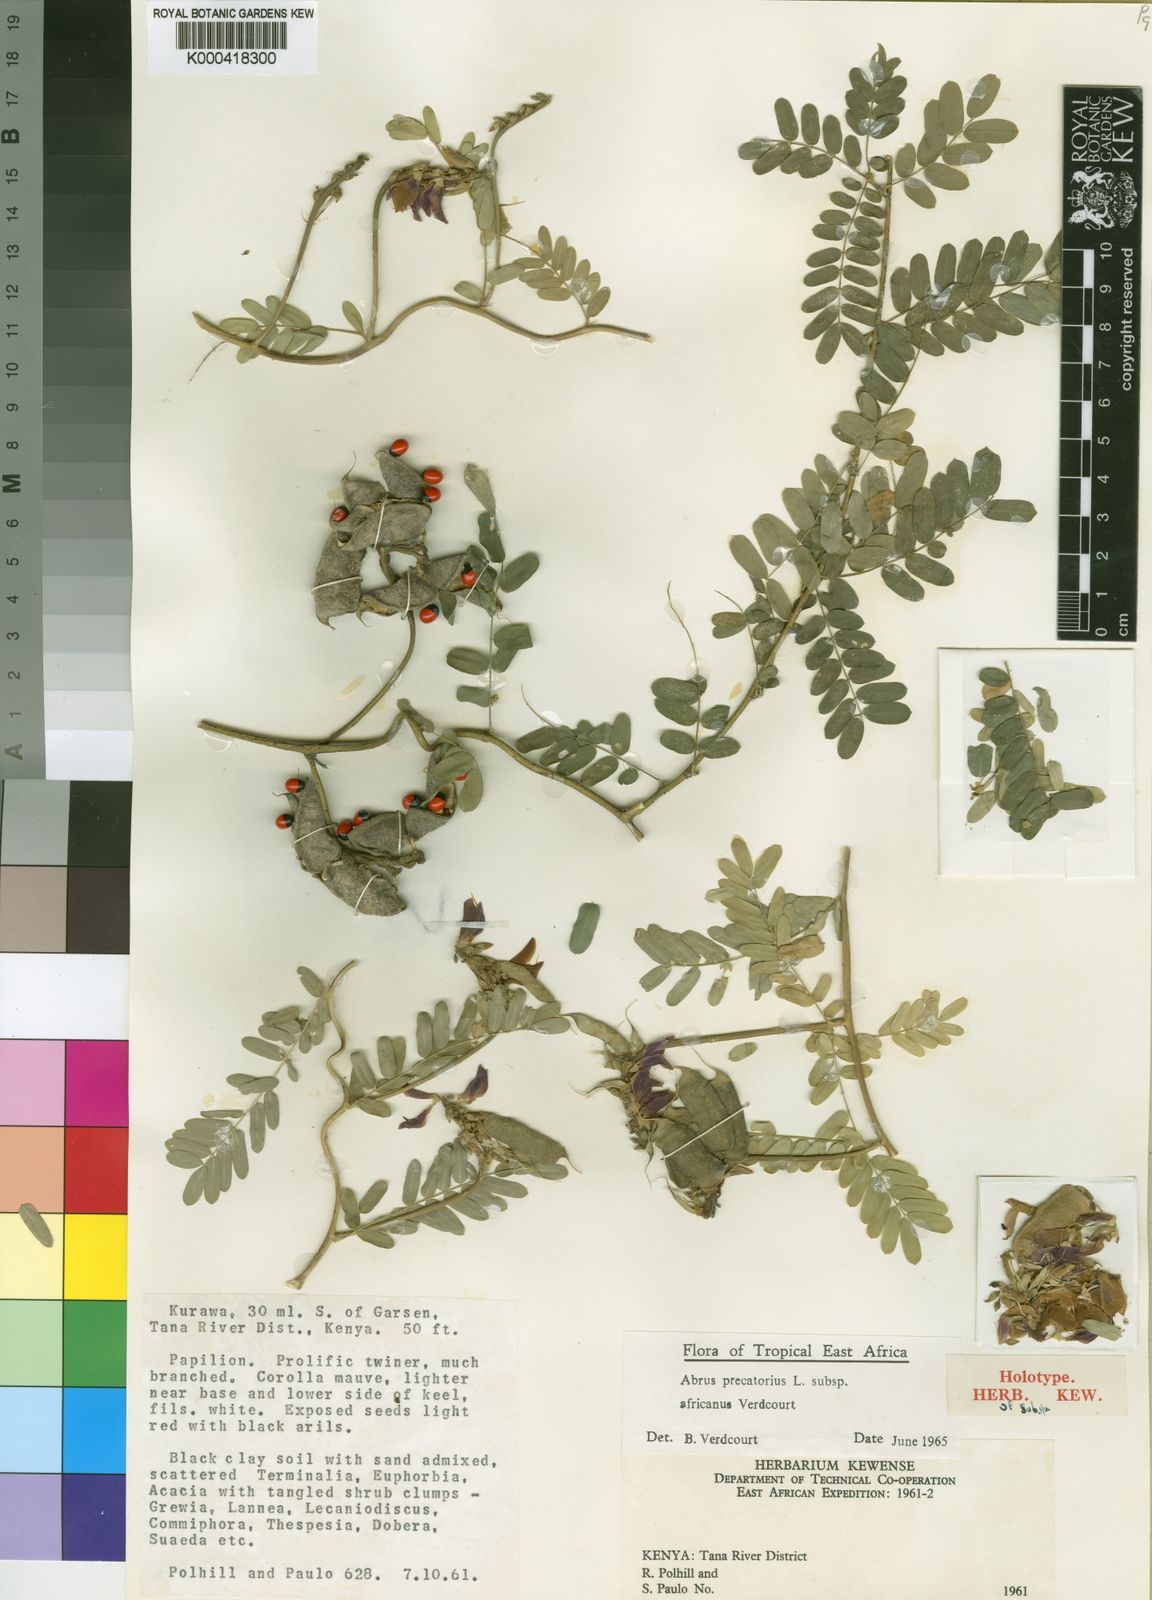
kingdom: Plantae
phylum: Tracheophyta
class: Magnoliopsida
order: Fabales
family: Fabaceae
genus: Abrus
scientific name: Abrus precatorius
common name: Rosarypea
